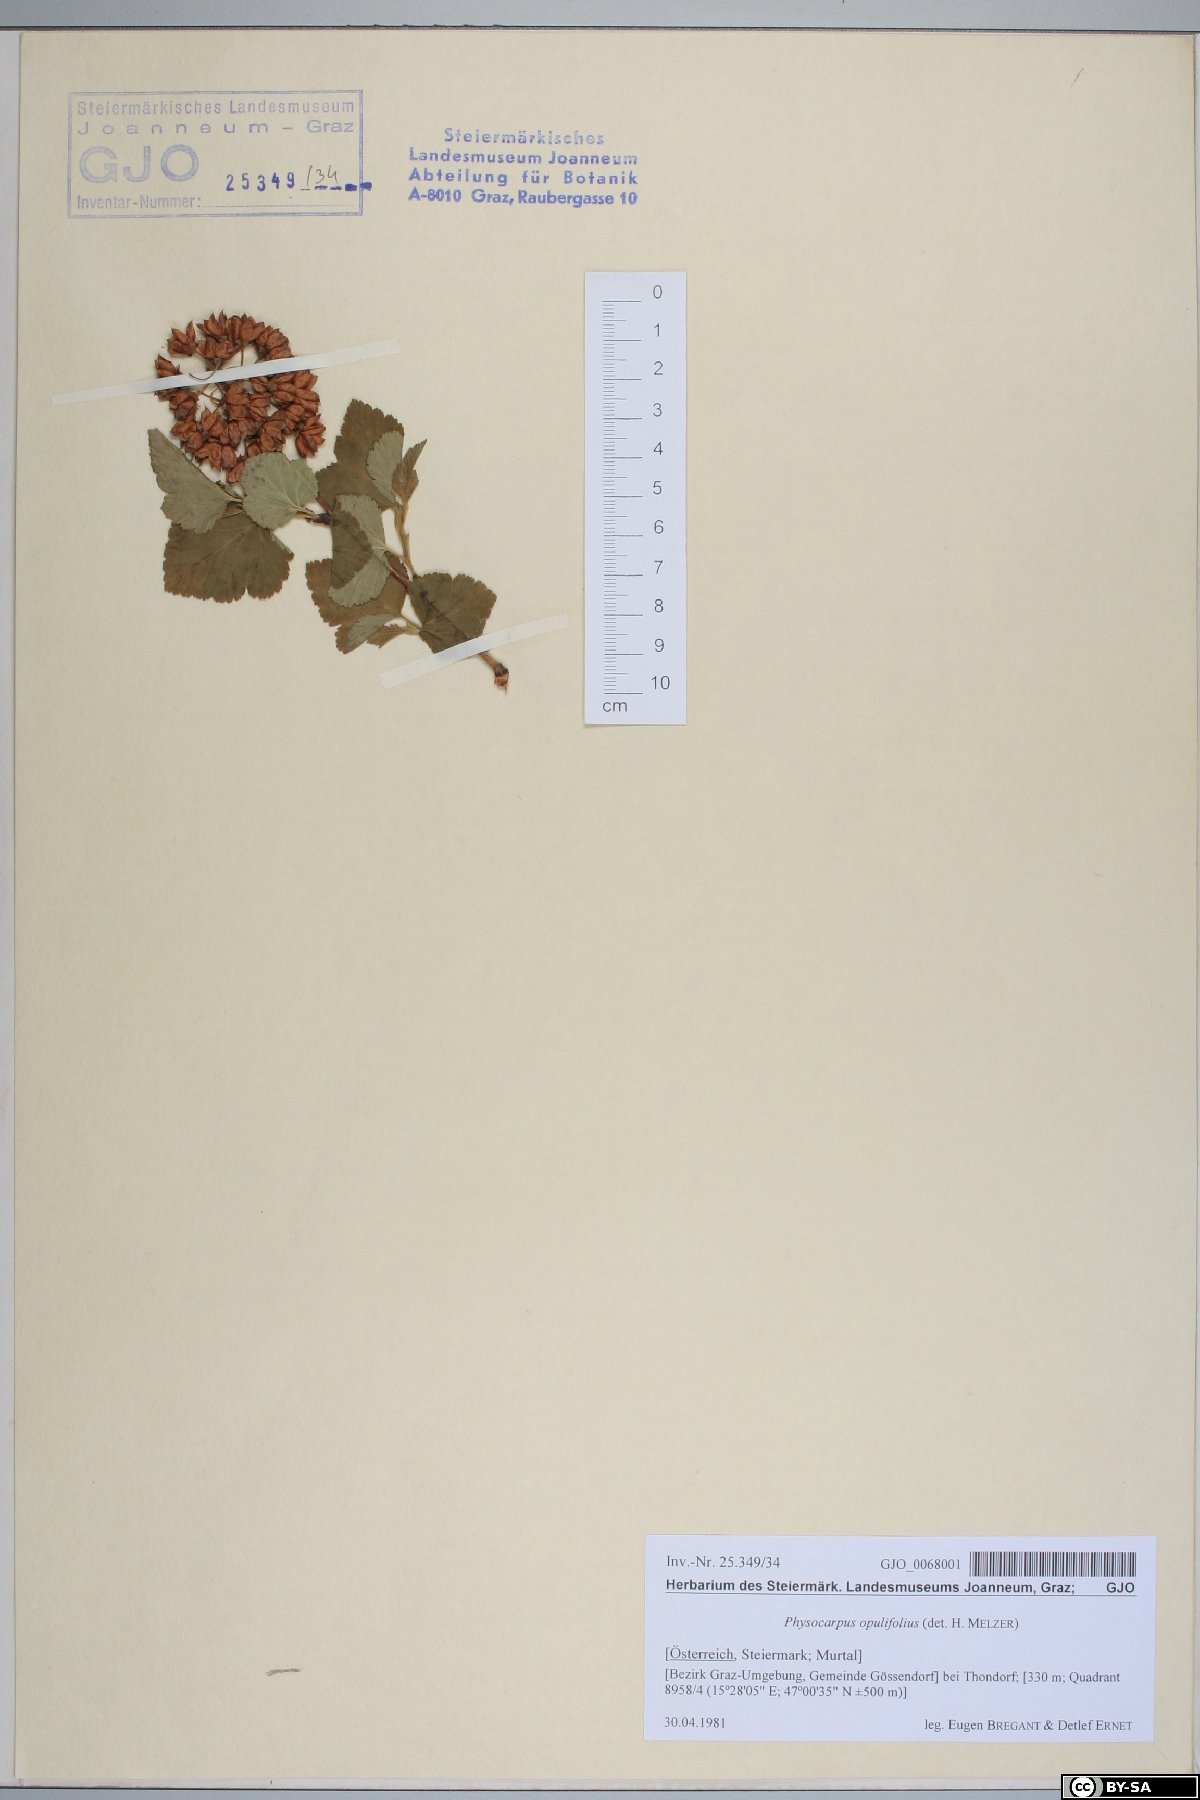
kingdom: Plantae
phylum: Tracheophyta
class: Magnoliopsida
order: Rosales
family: Rosaceae
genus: Physocarpus
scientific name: Physocarpus opulifolius
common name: Ninebark
